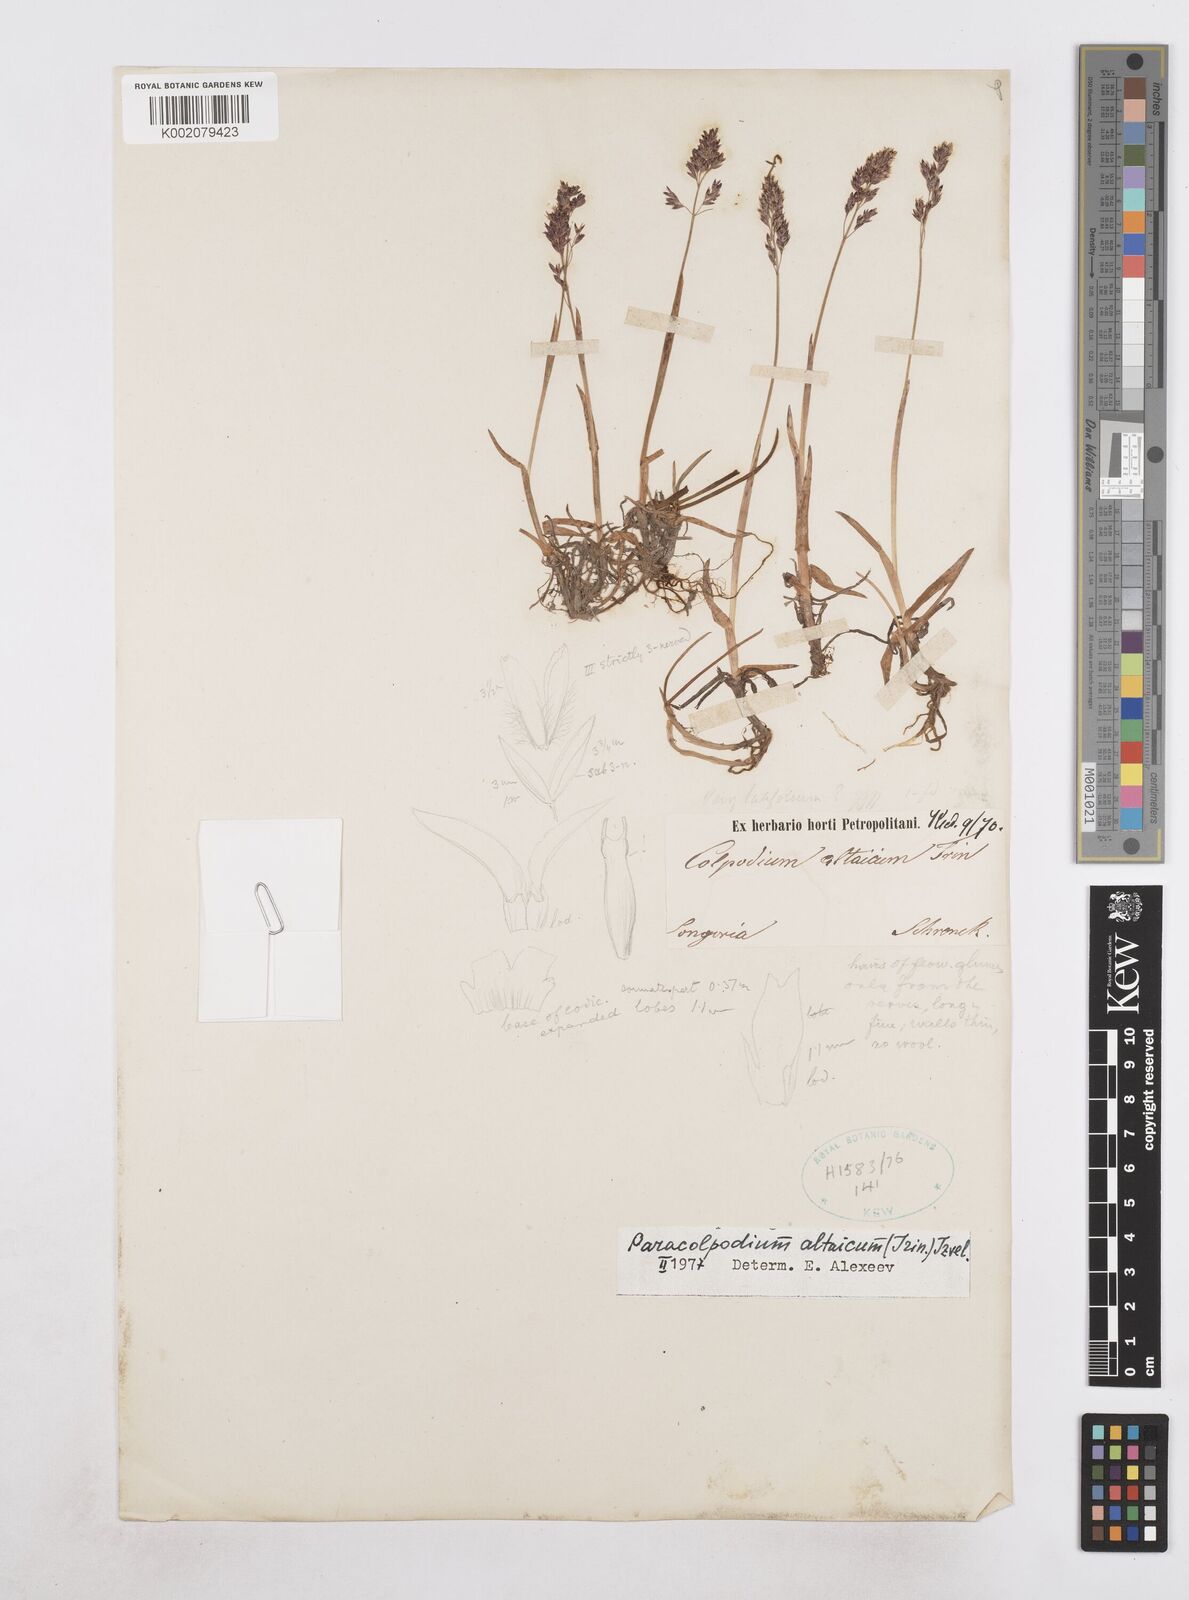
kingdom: Plantae
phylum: Tracheophyta
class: Liliopsida
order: Poales
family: Poaceae
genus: Paracolpodium
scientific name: Paracolpodium altaicum
